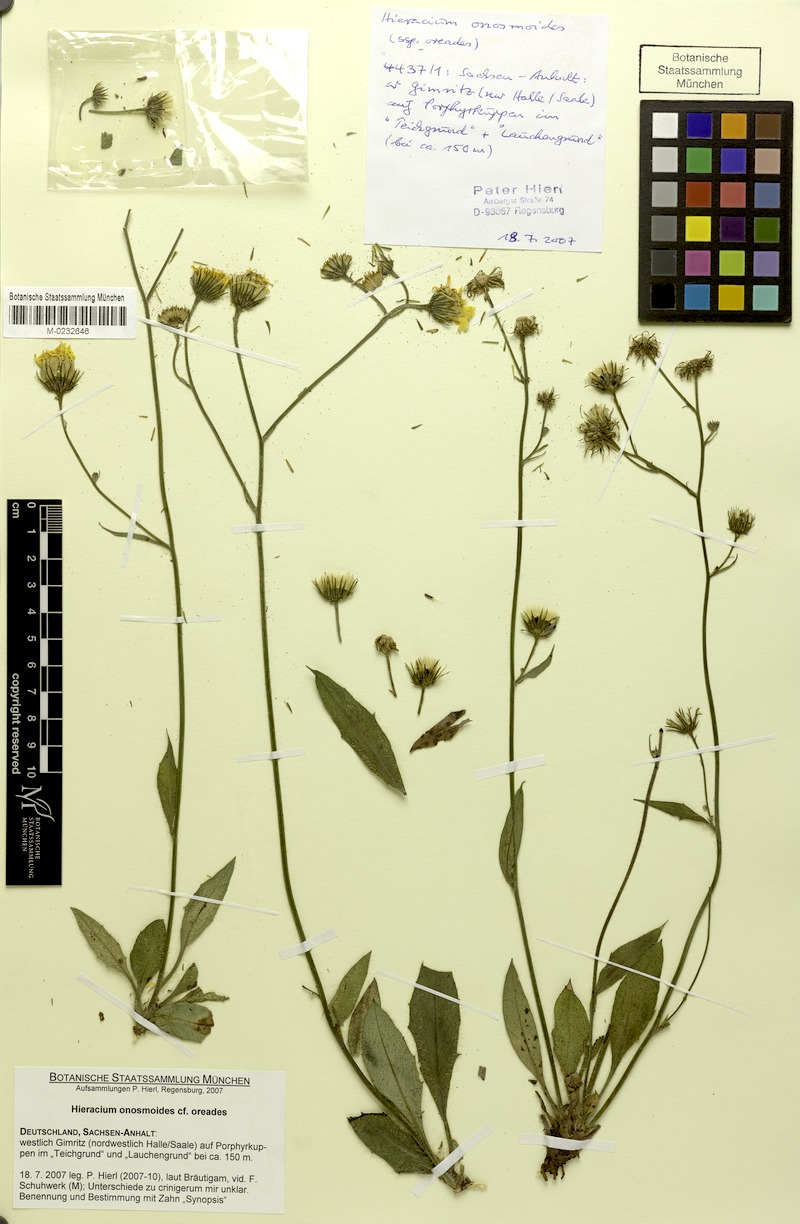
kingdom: Plantae
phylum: Tracheophyta
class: Magnoliopsida
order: Asterales
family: Asteraceae
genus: Hieracium
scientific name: Hieracium onosmoides
